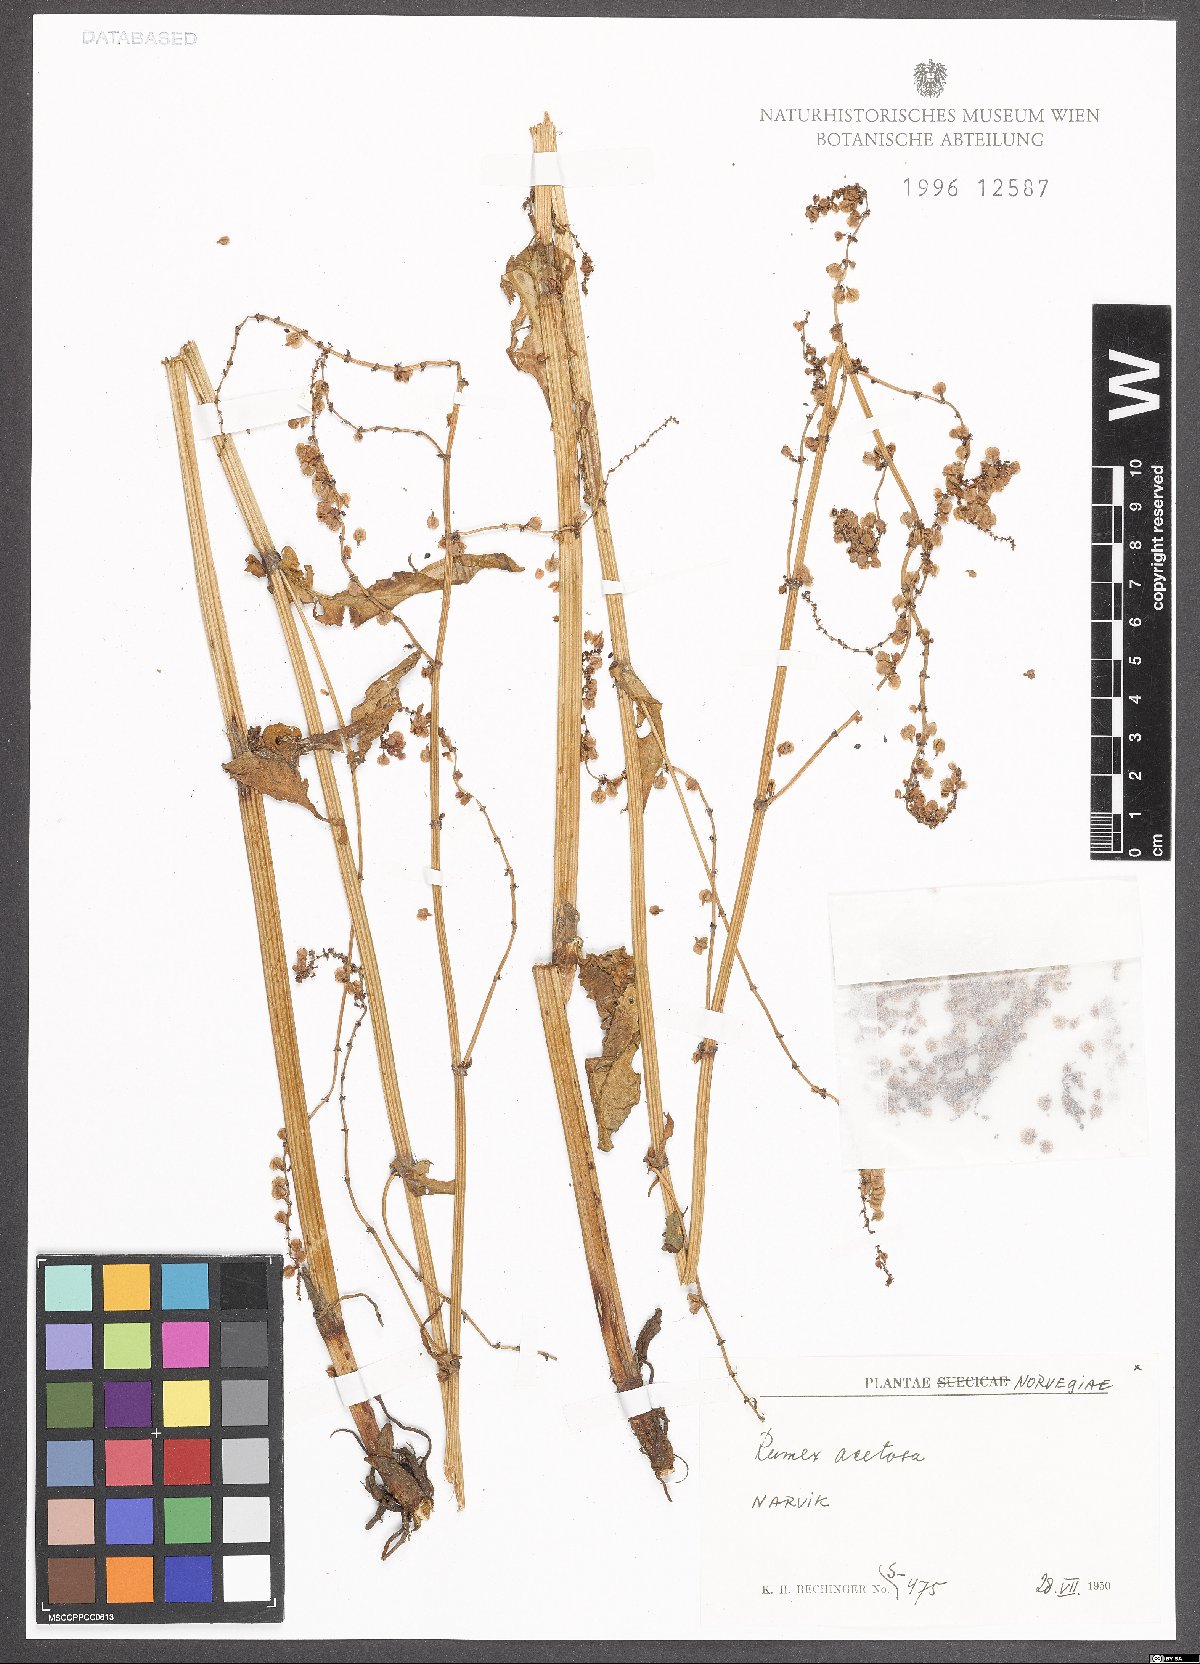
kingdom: Plantae
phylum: Tracheophyta
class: Magnoliopsida
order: Caryophyllales
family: Polygonaceae
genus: Rumex
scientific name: Rumex acetosa
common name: Garden sorrel
